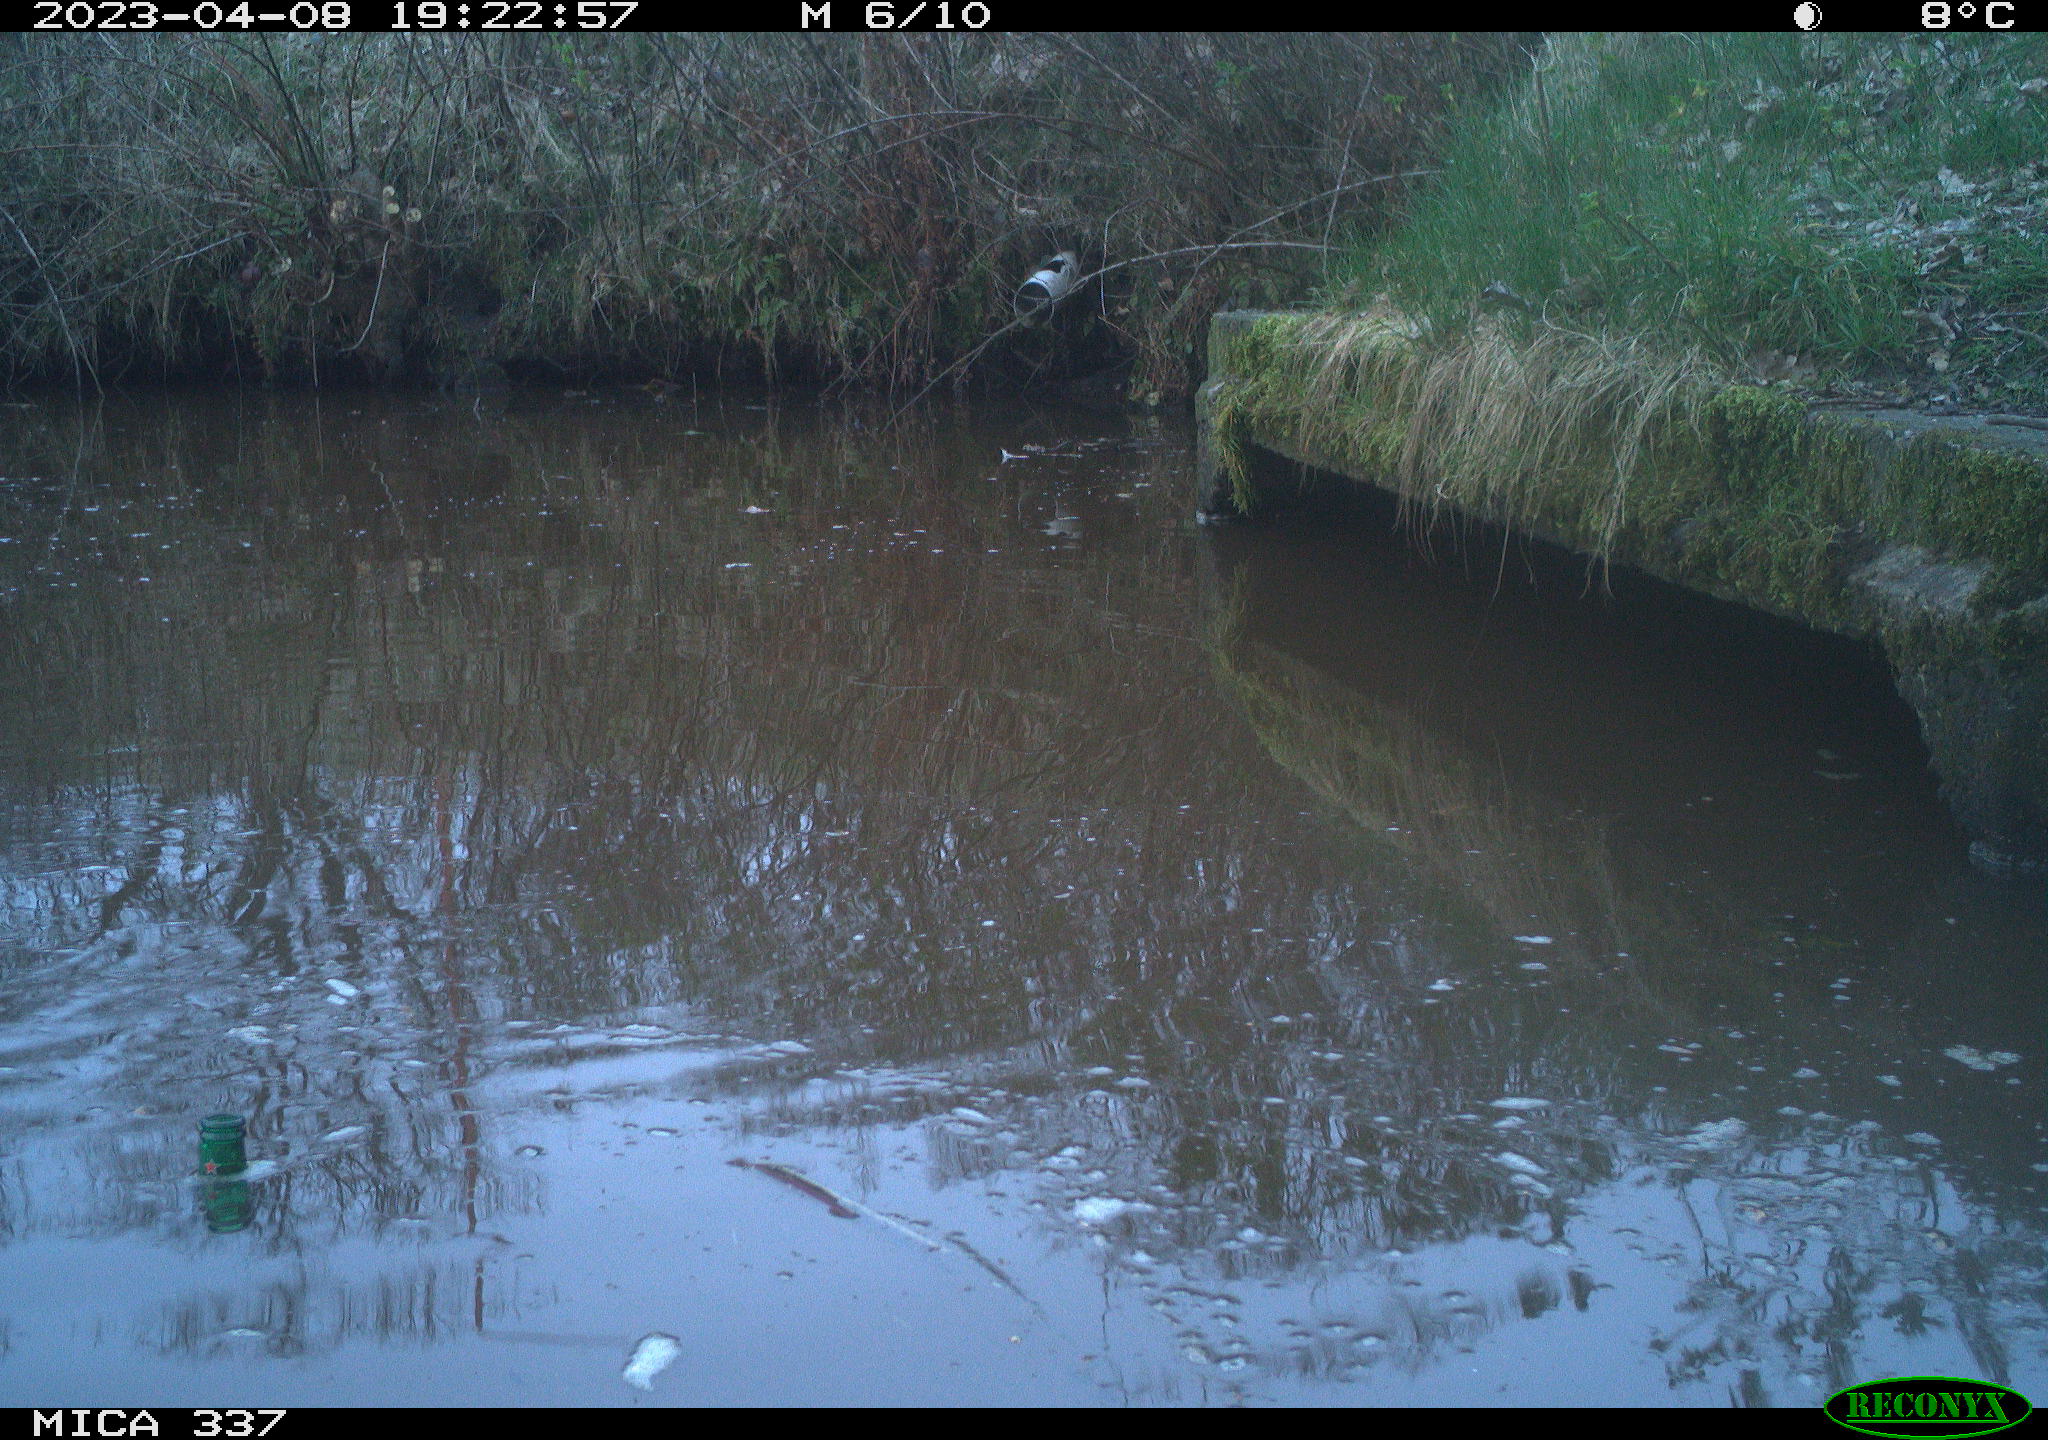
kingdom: Animalia
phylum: Chordata
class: Aves
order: Gruiformes
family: Rallidae
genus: Fulica
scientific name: Fulica atra
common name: Eurasian coot
